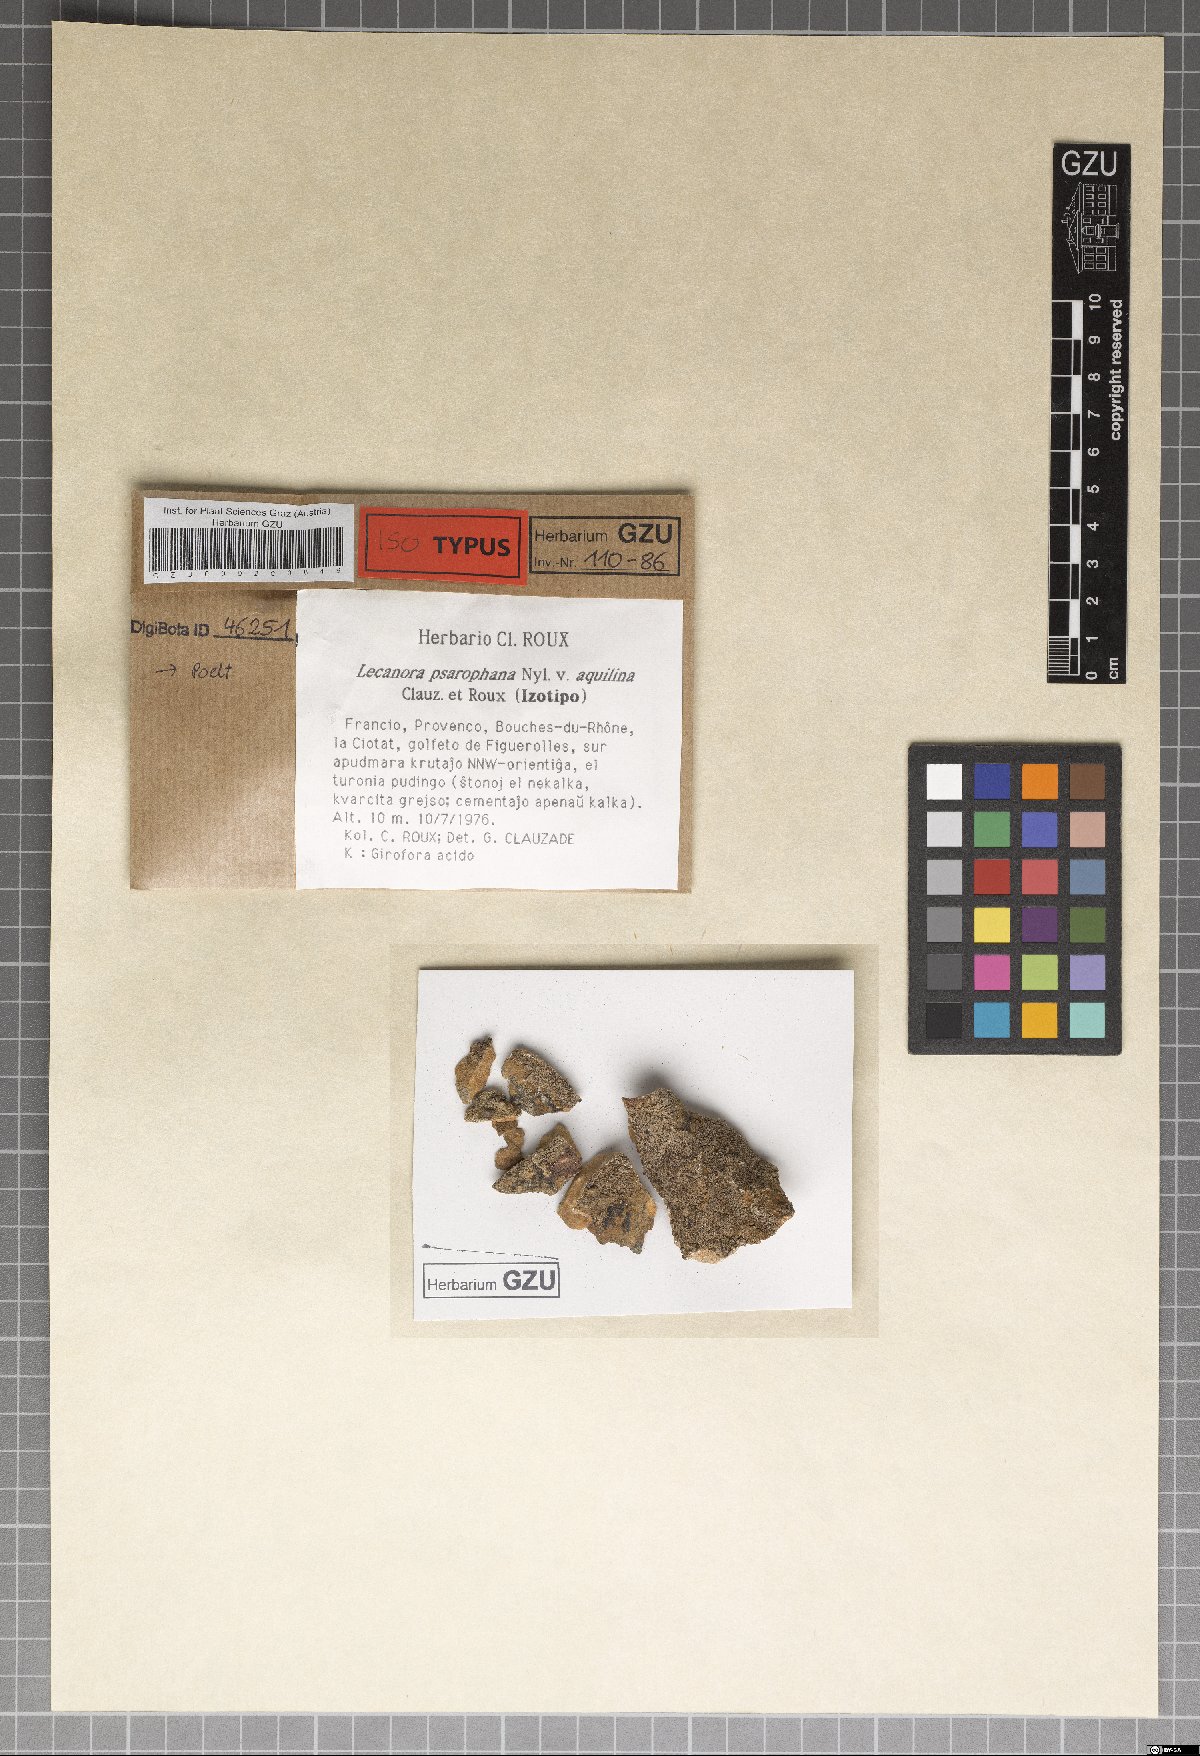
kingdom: Fungi
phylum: Ascomycota
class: Lecanoromycetes
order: Lecanorales
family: Lecanoraceae
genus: Lecanora
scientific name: Lecanora psarophana
